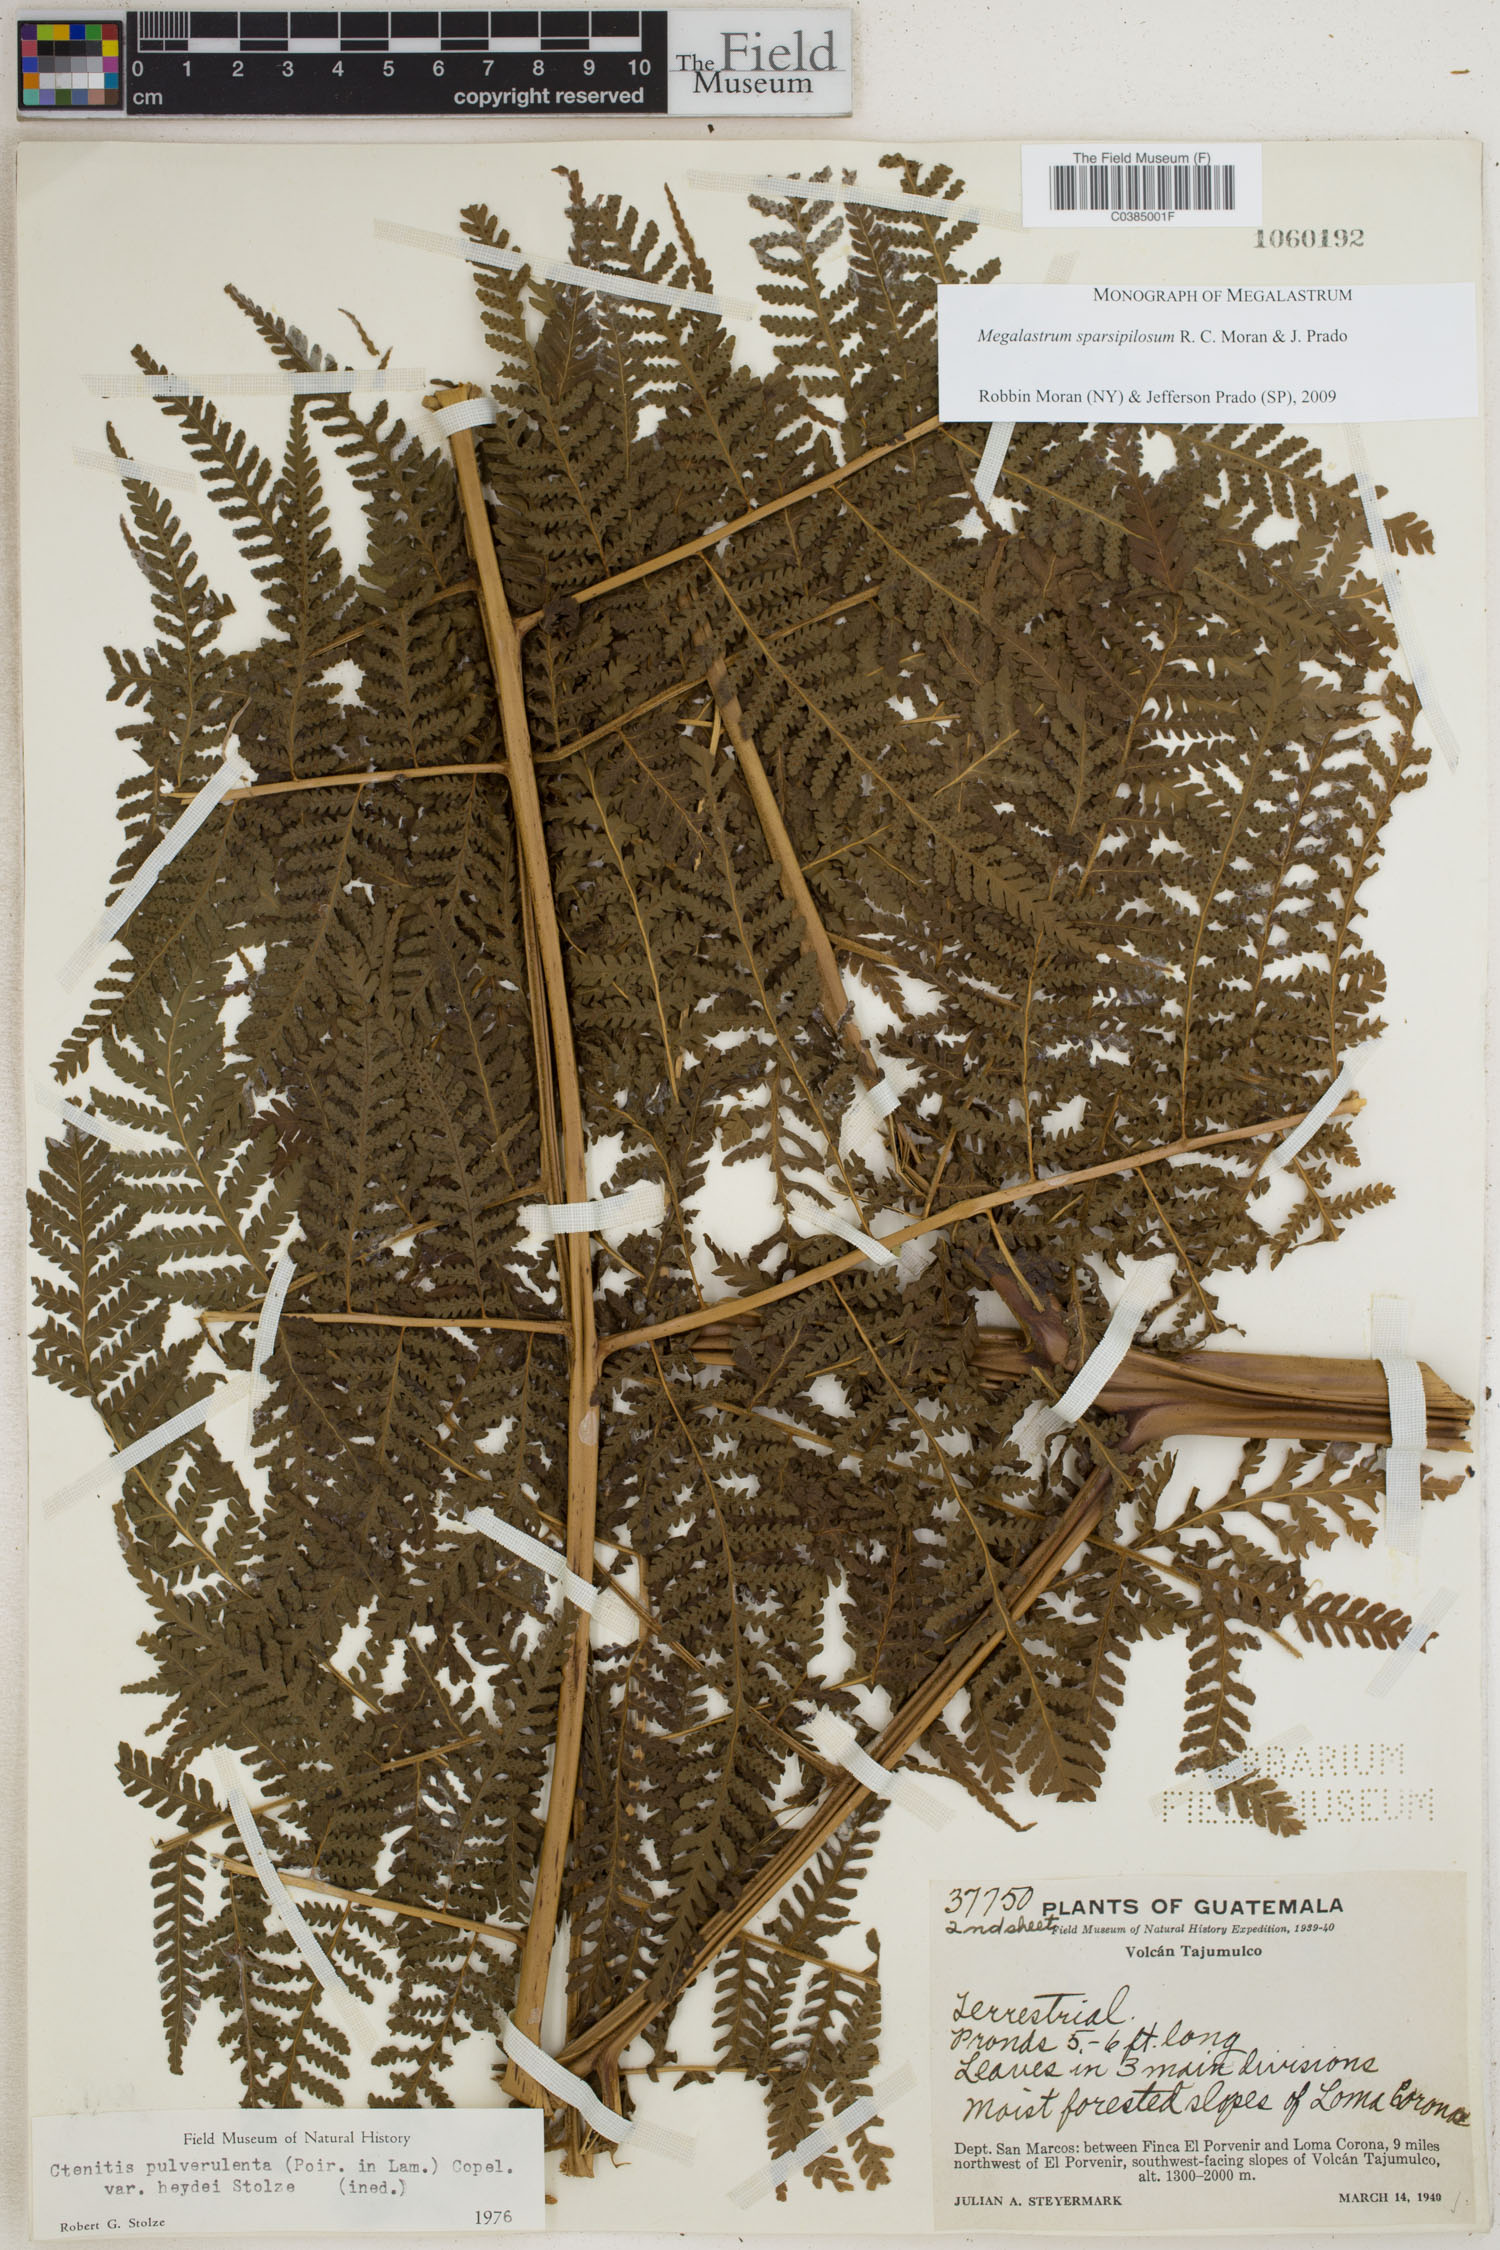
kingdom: Plantae
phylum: Tracheophyta
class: Polypodiopsida
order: Polypodiales
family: Dryopteridaceae
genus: Megalastrum
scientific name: Megalastrum sparsipilosum
